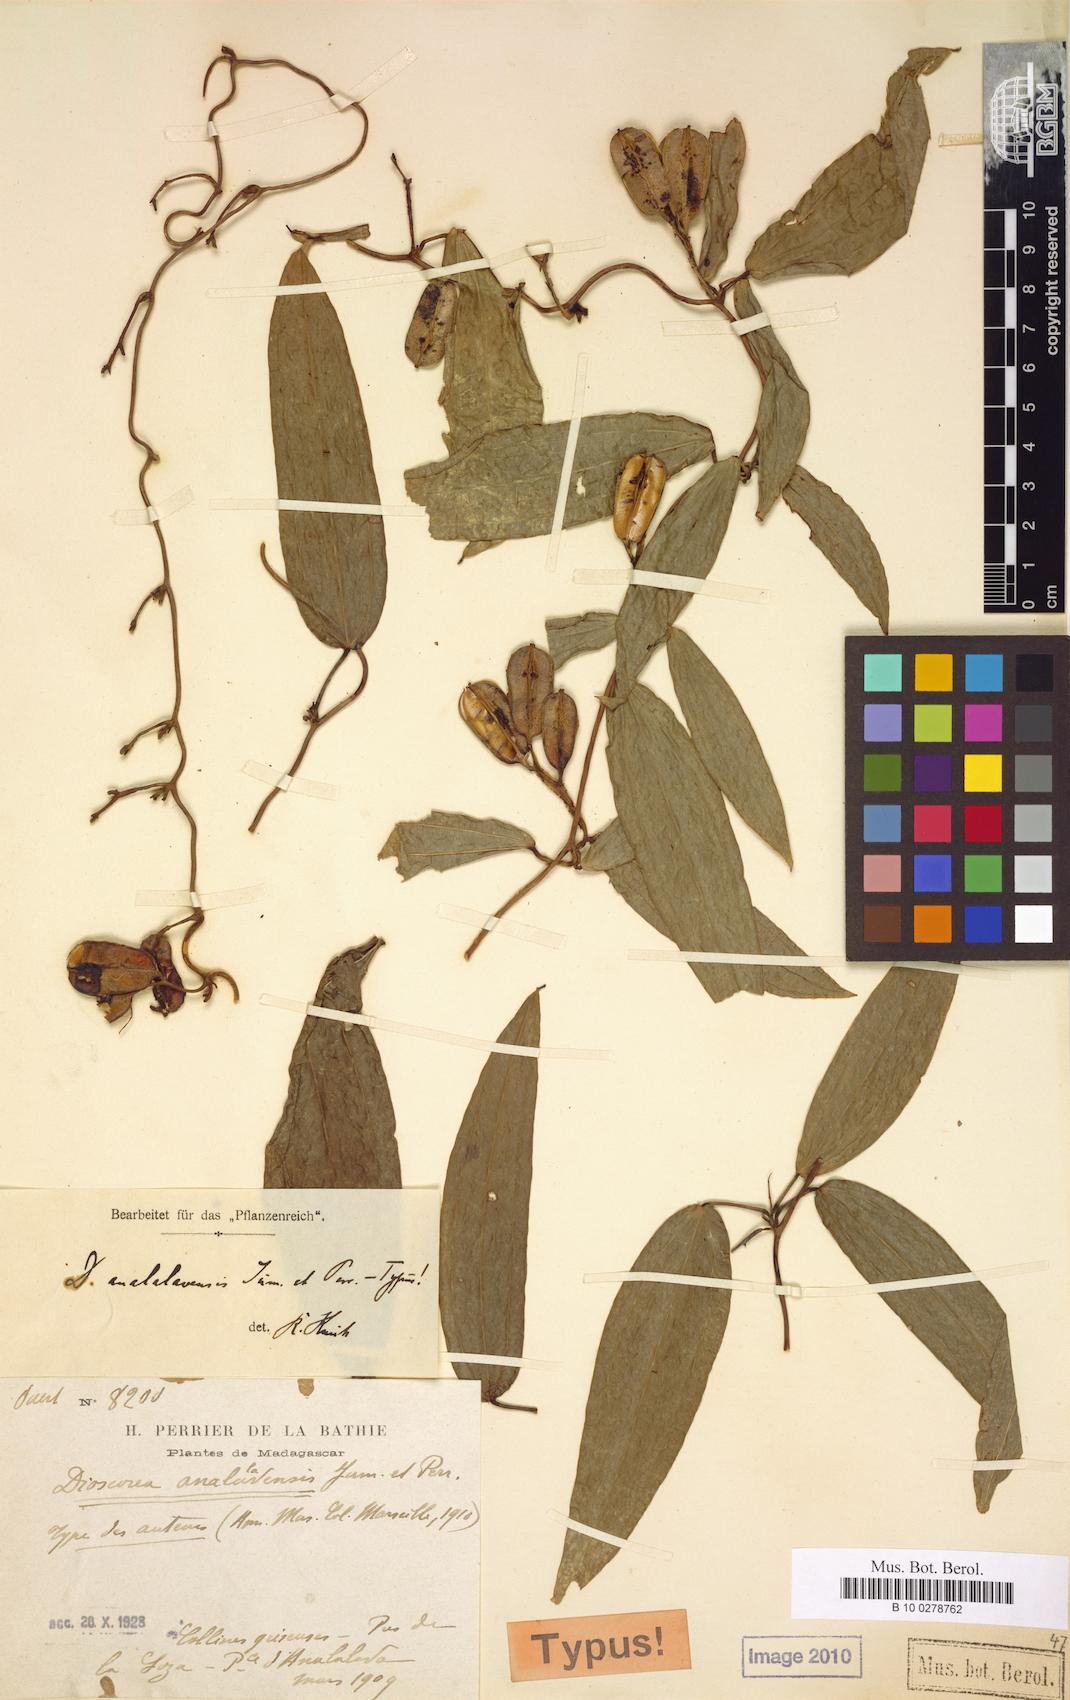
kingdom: Plantae
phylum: Tracheophyta
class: Liliopsida
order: Dioscoreales
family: Dioscoreaceae
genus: Dioscorea
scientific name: Dioscorea analalavensis
